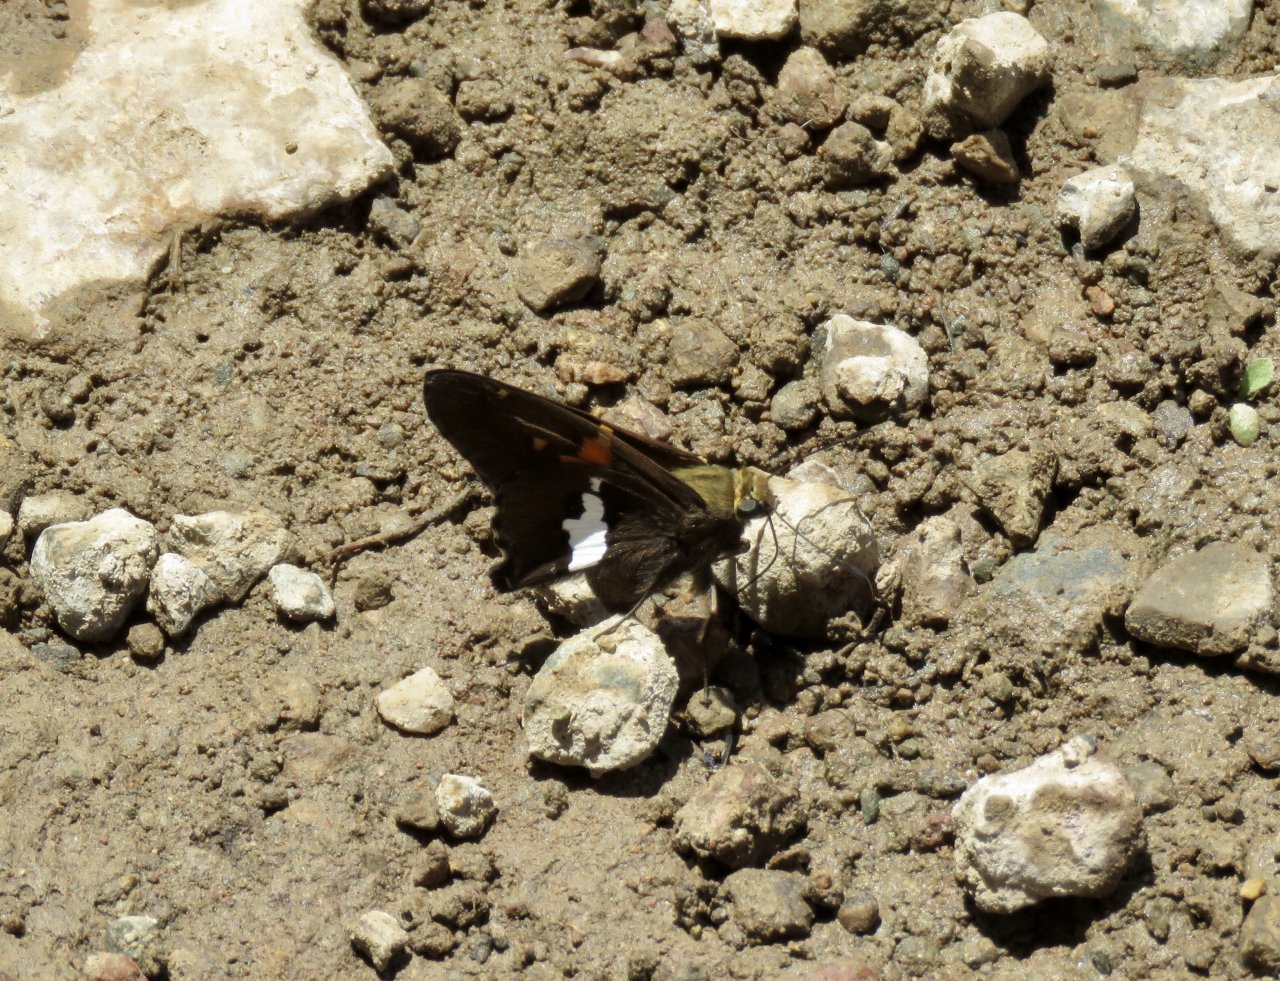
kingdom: Animalia
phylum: Arthropoda
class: Insecta
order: Lepidoptera
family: Hesperiidae
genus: Epargyreus
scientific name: Epargyreus clarus
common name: Silver-spotted Skipper
